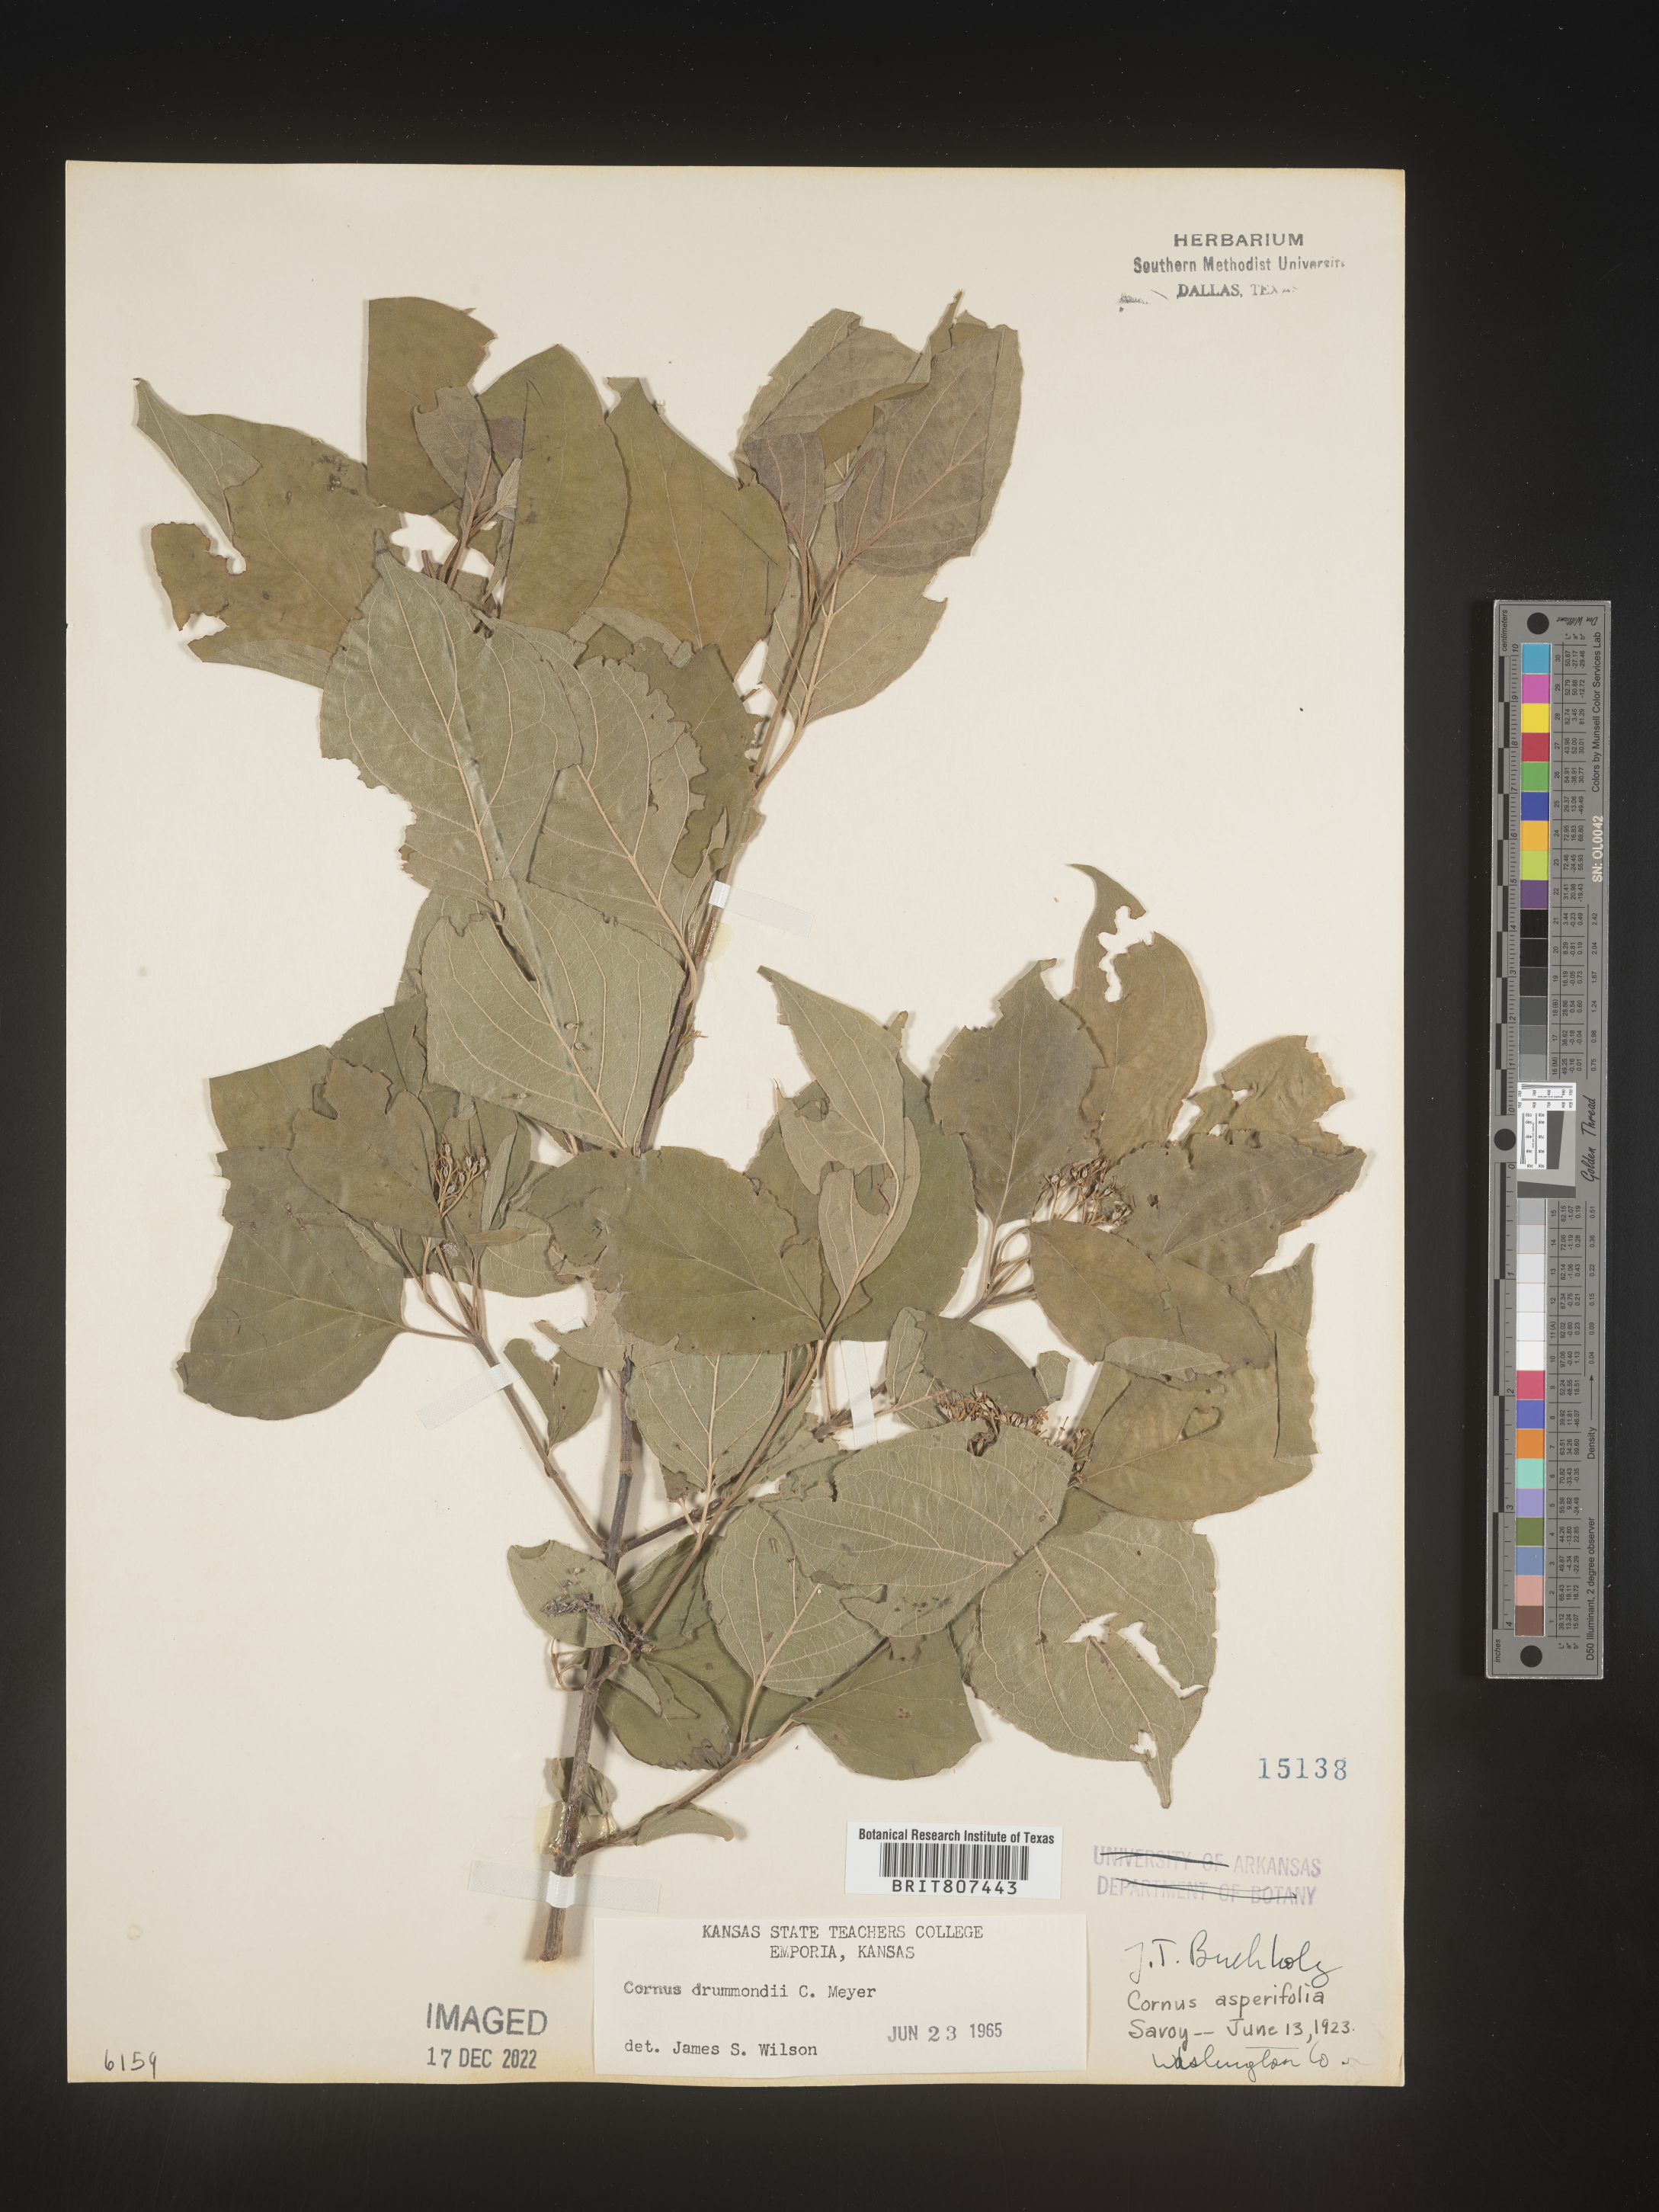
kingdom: Plantae
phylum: Tracheophyta
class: Magnoliopsida
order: Cornales
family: Cornaceae
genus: Cornus
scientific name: Cornus drummondii
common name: Rough-leaf dogwood
